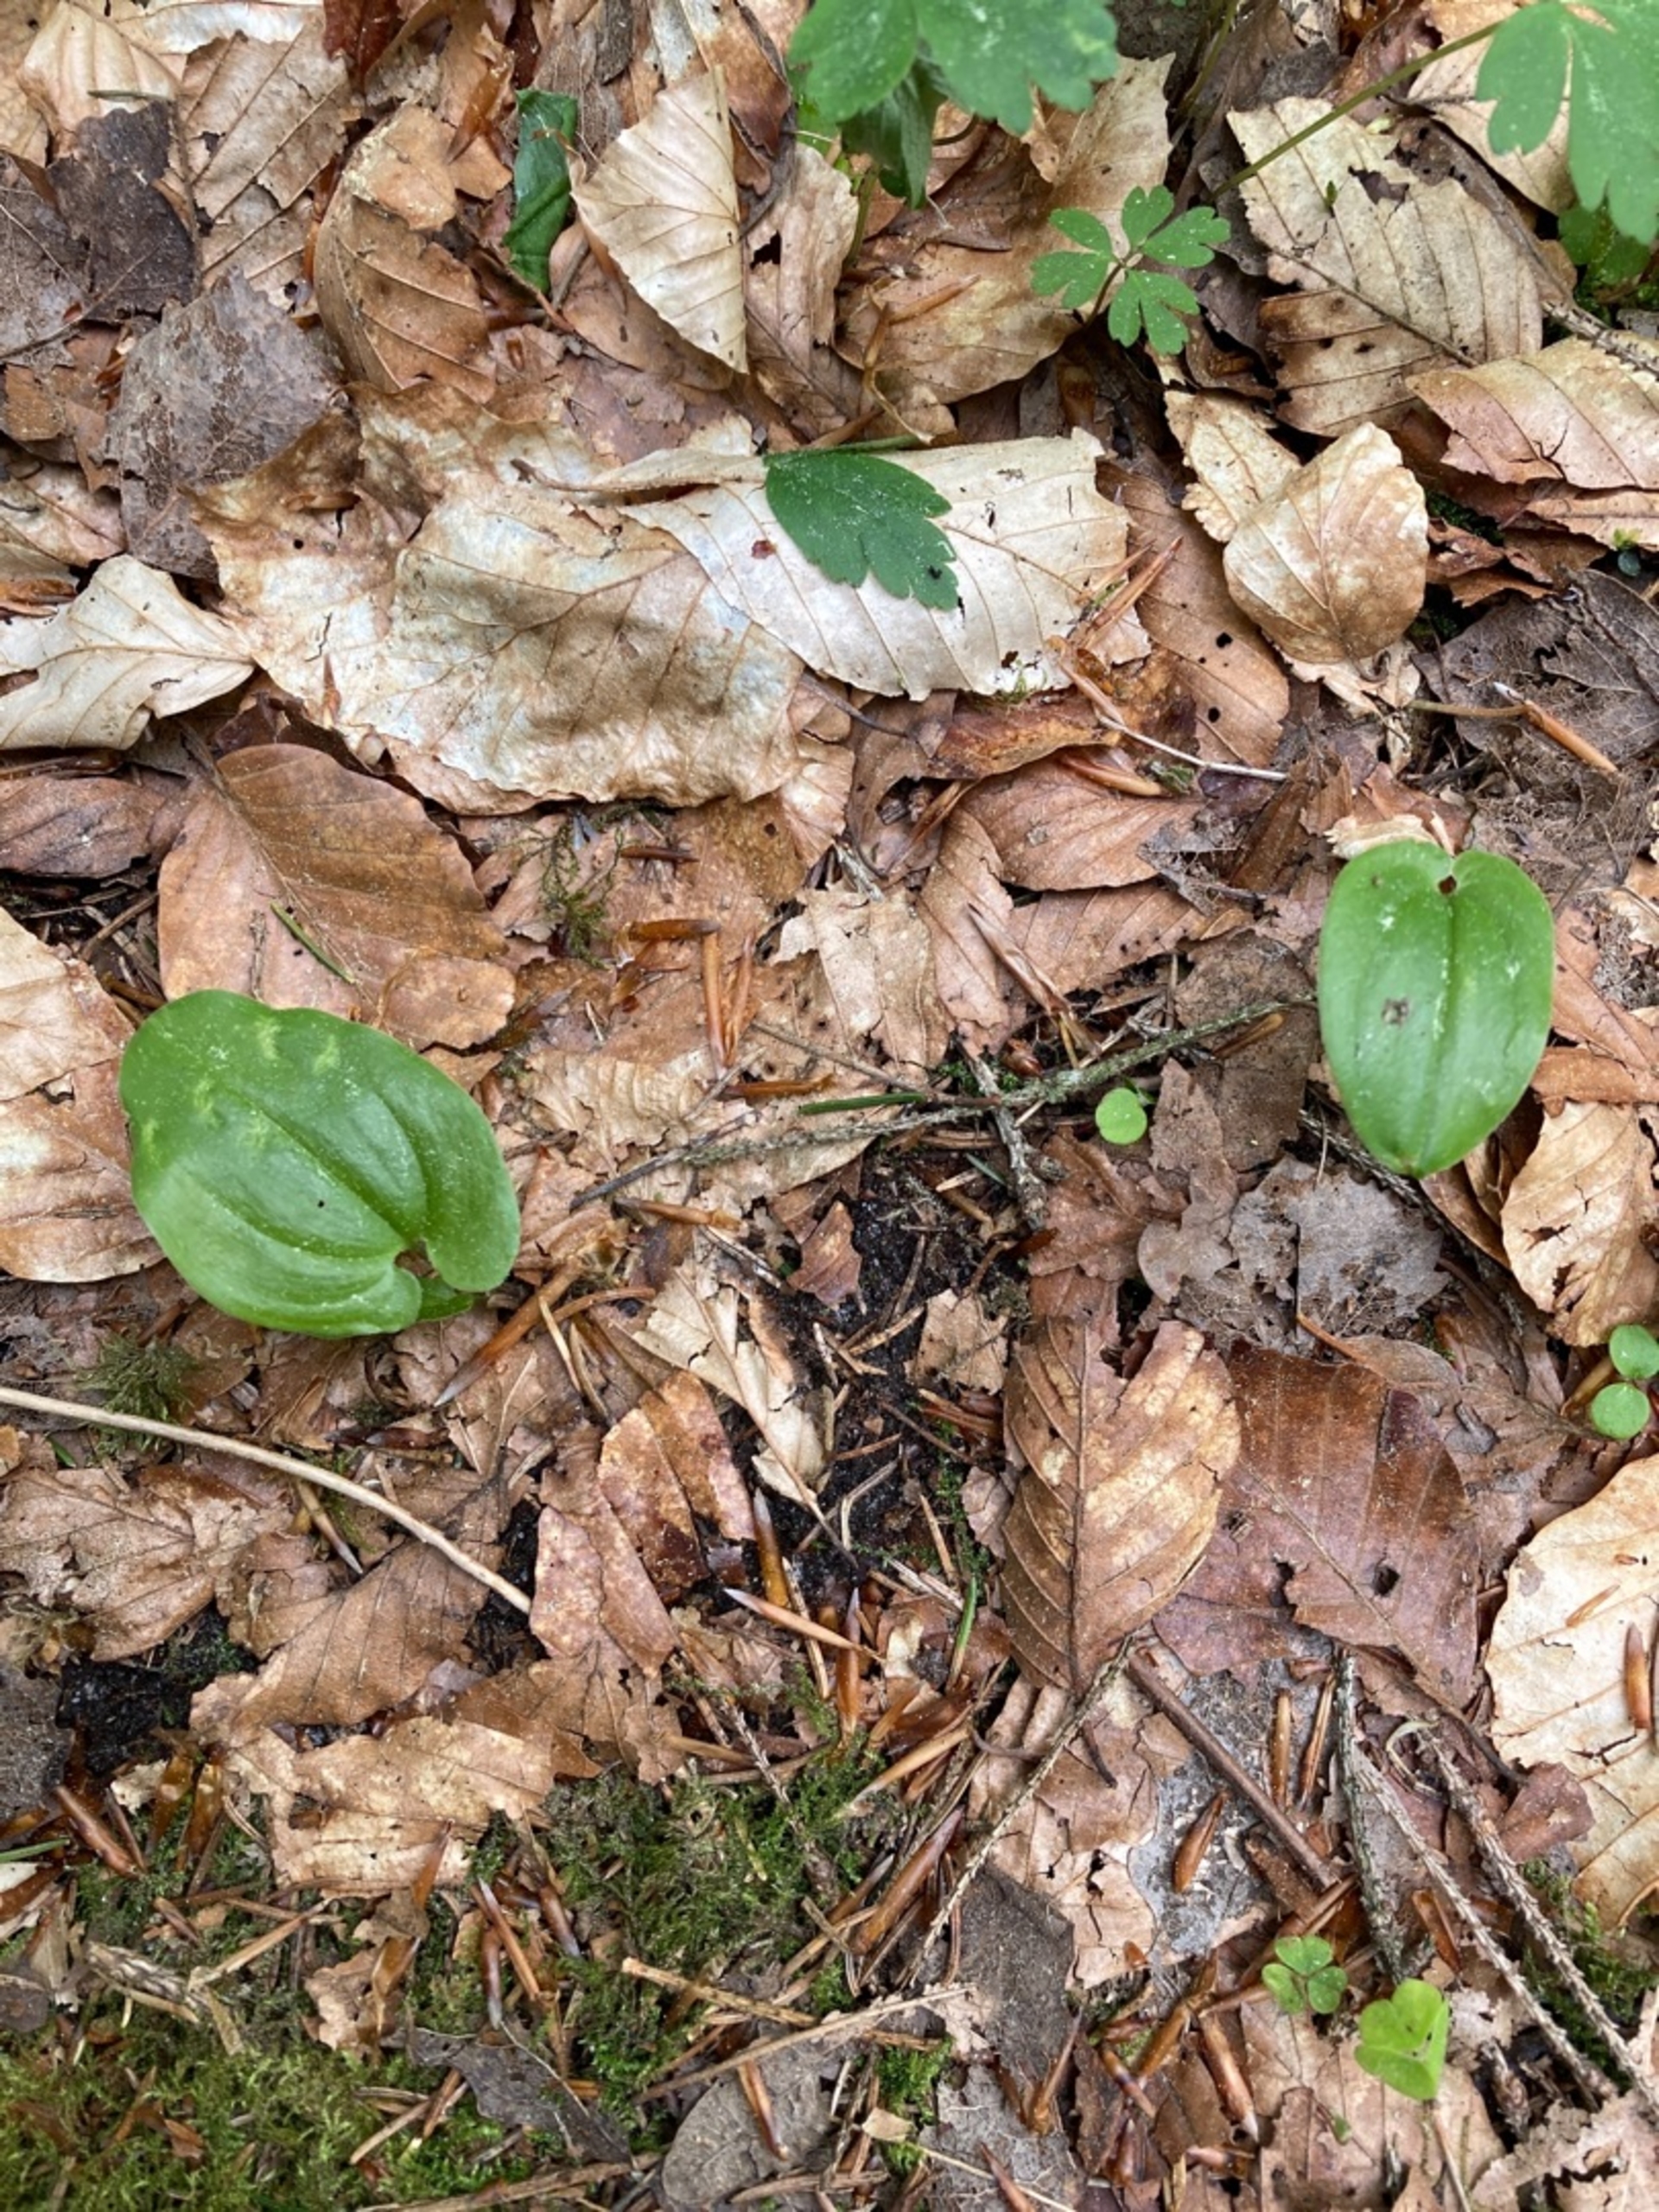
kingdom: Plantae
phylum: Tracheophyta
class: Liliopsida
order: Asparagales
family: Asparagaceae
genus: Maianthemum
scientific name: Maianthemum bifolium
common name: Majblomst
